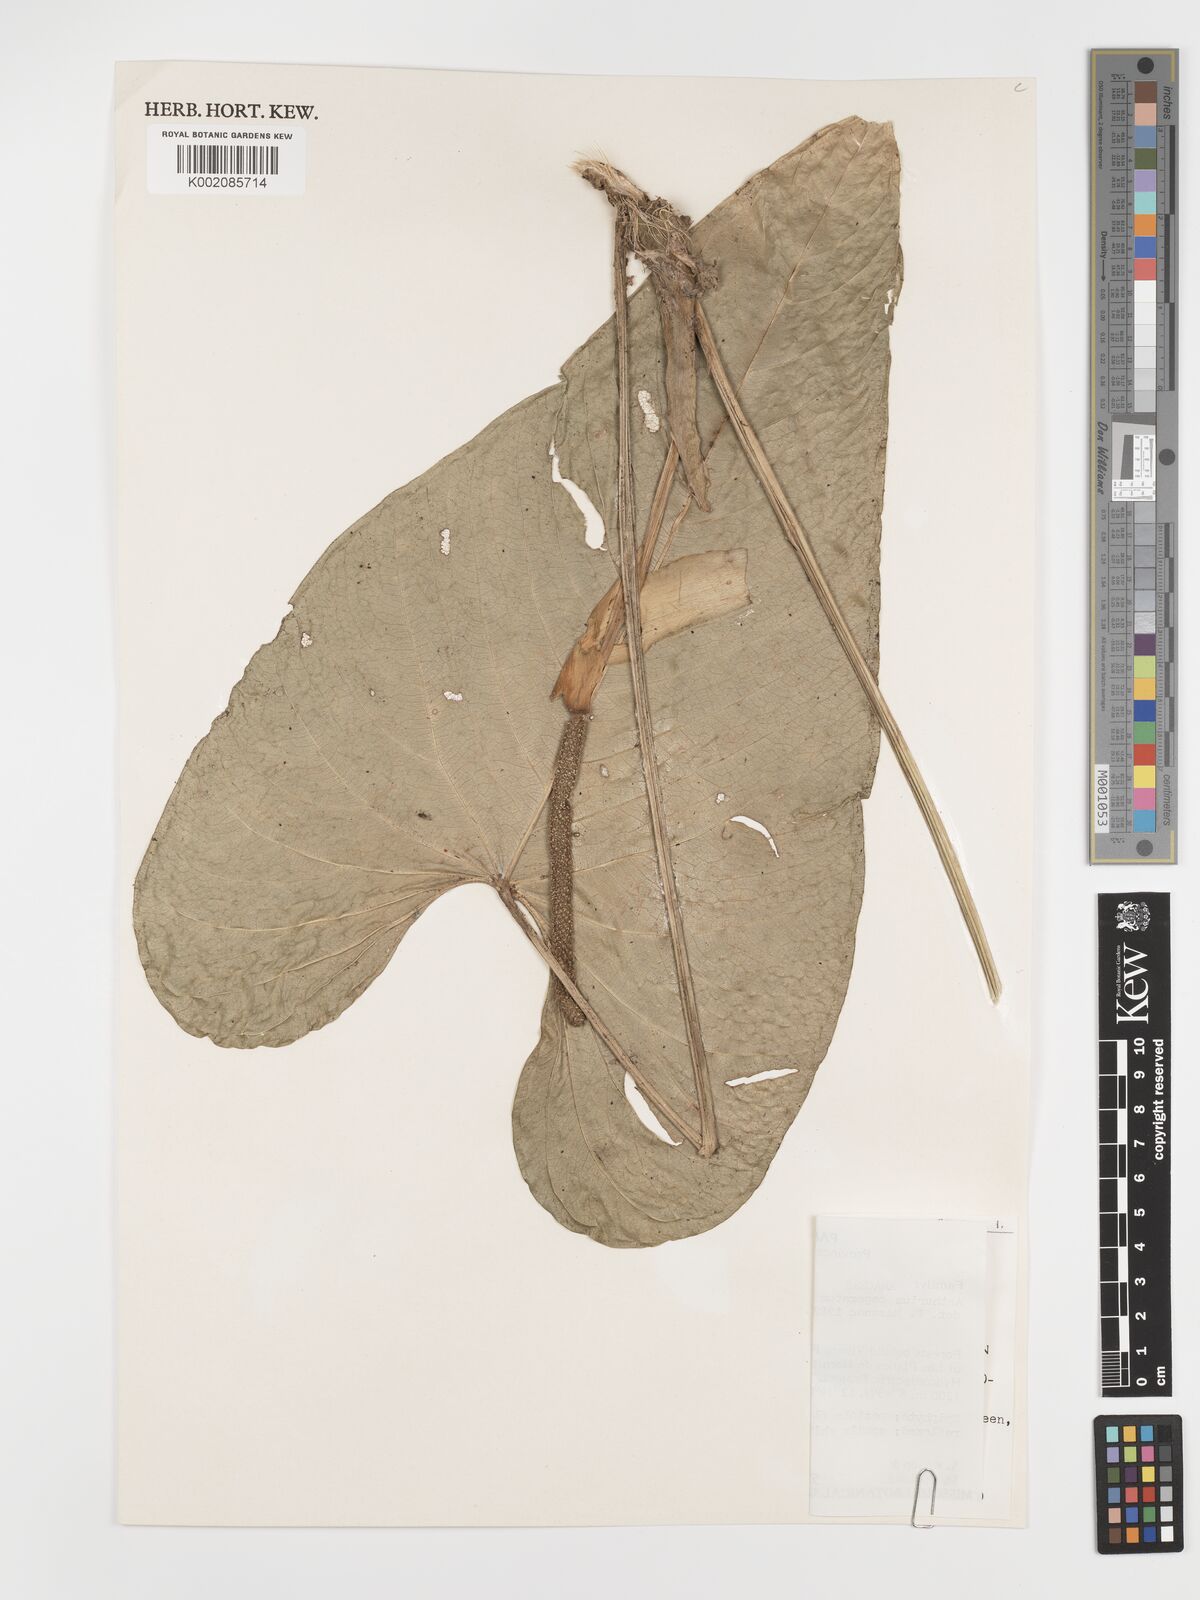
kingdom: Plantae
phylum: Tracheophyta
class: Liliopsida
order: Alismatales
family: Araceae
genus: Anthurium
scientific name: Anthurium caperatum
